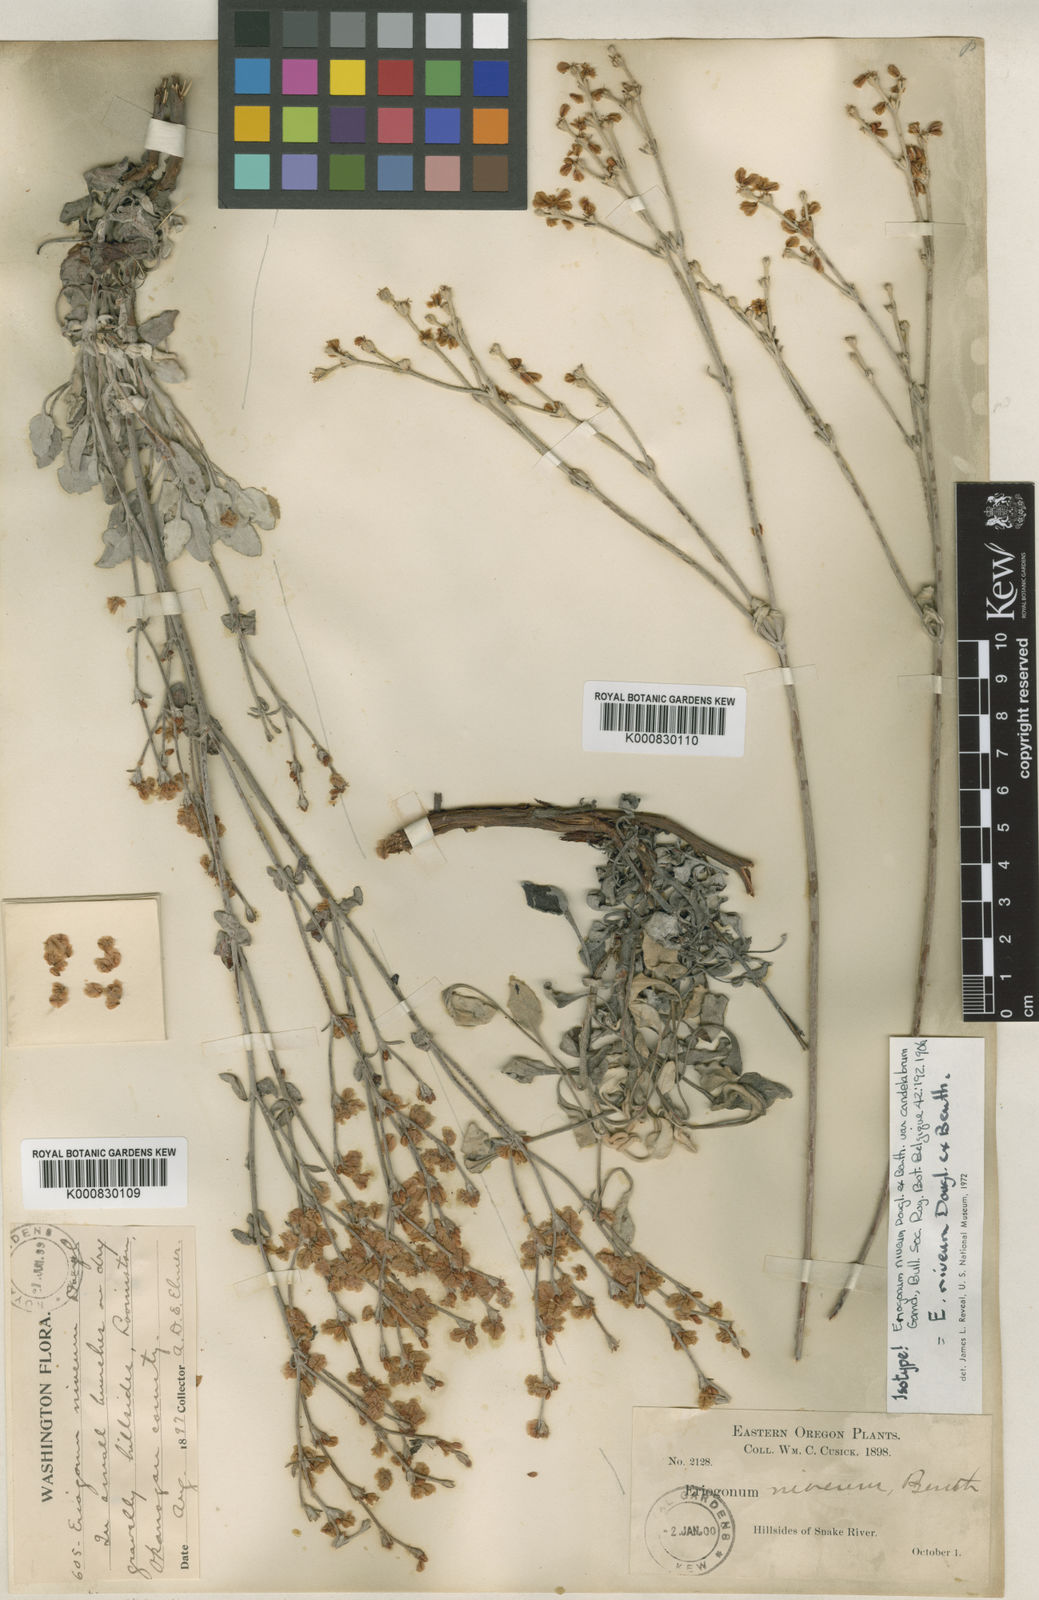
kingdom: Plantae
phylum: Tracheophyta
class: Magnoliopsida
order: Caryophyllales
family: Polygonaceae
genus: Eriogonum
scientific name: Eriogonum niveum
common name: Snow wild buckwheat
